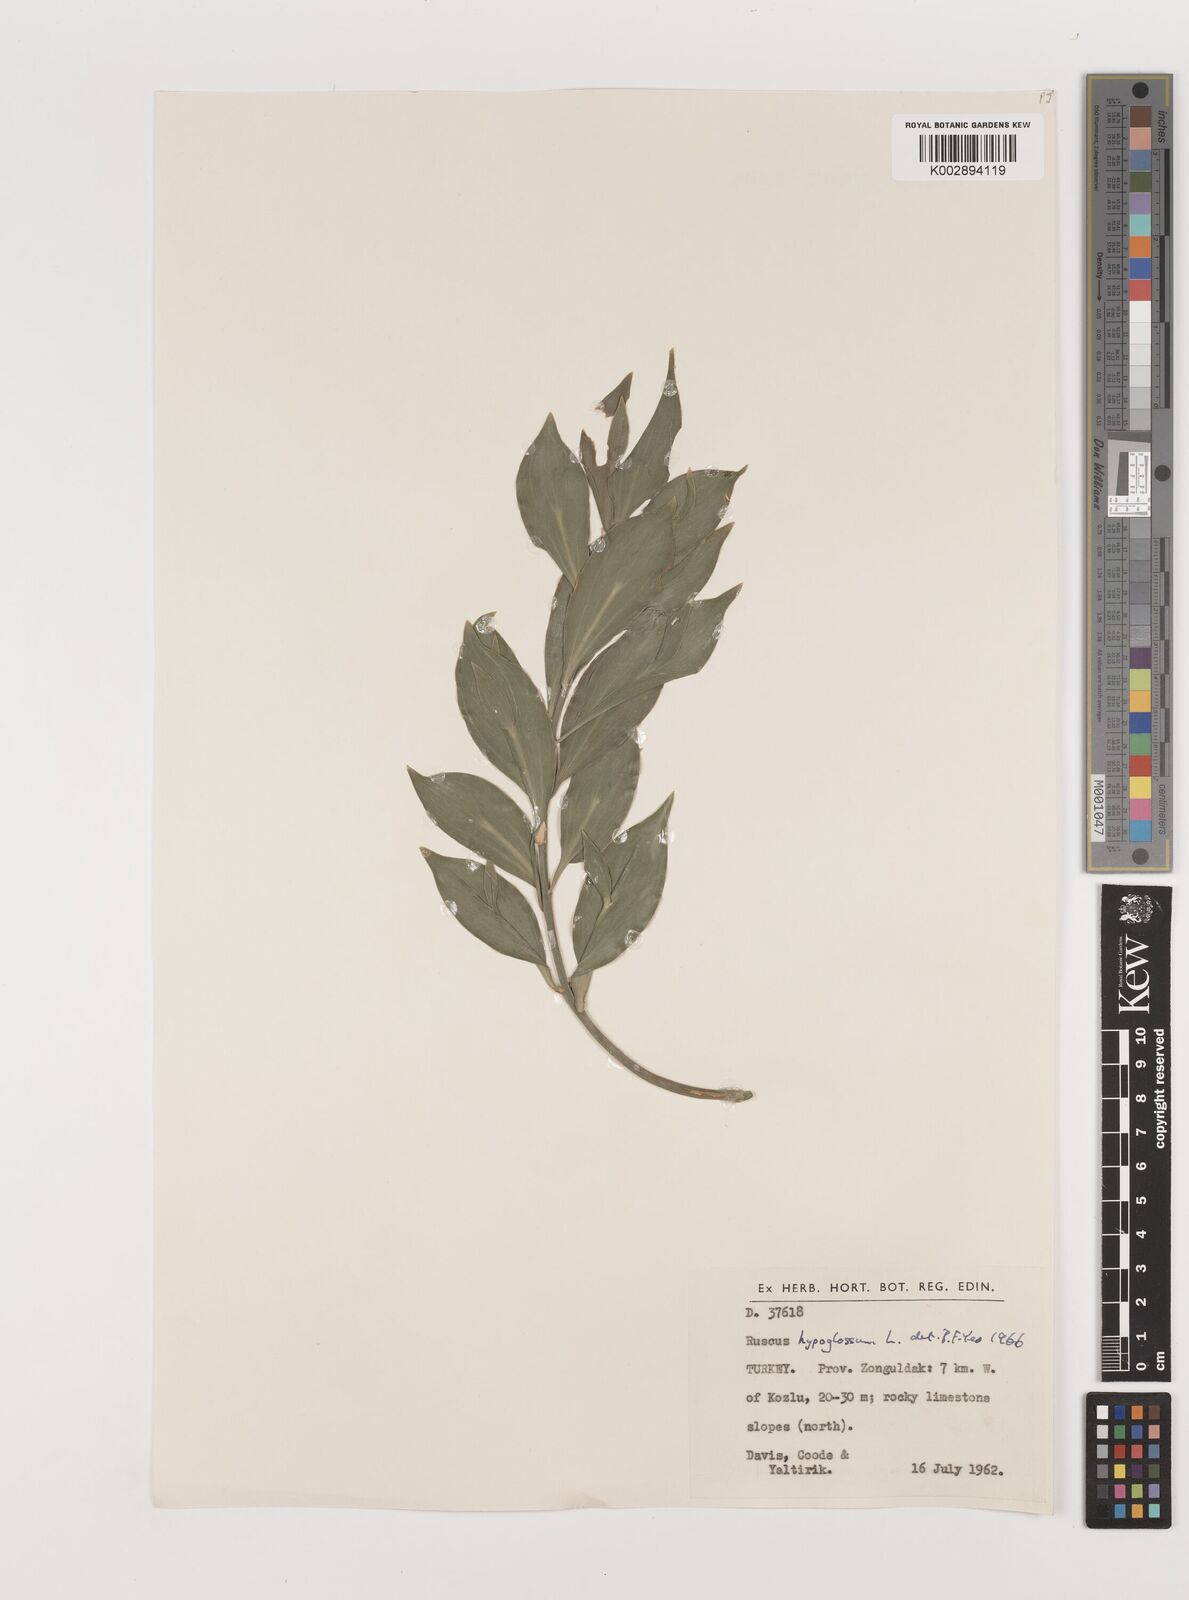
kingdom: Plantae
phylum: Tracheophyta
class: Liliopsida
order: Asparagales
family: Asparagaceae
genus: Ruscus
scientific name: Ruscus hypoglossum
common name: Spineless butcher's-broom
